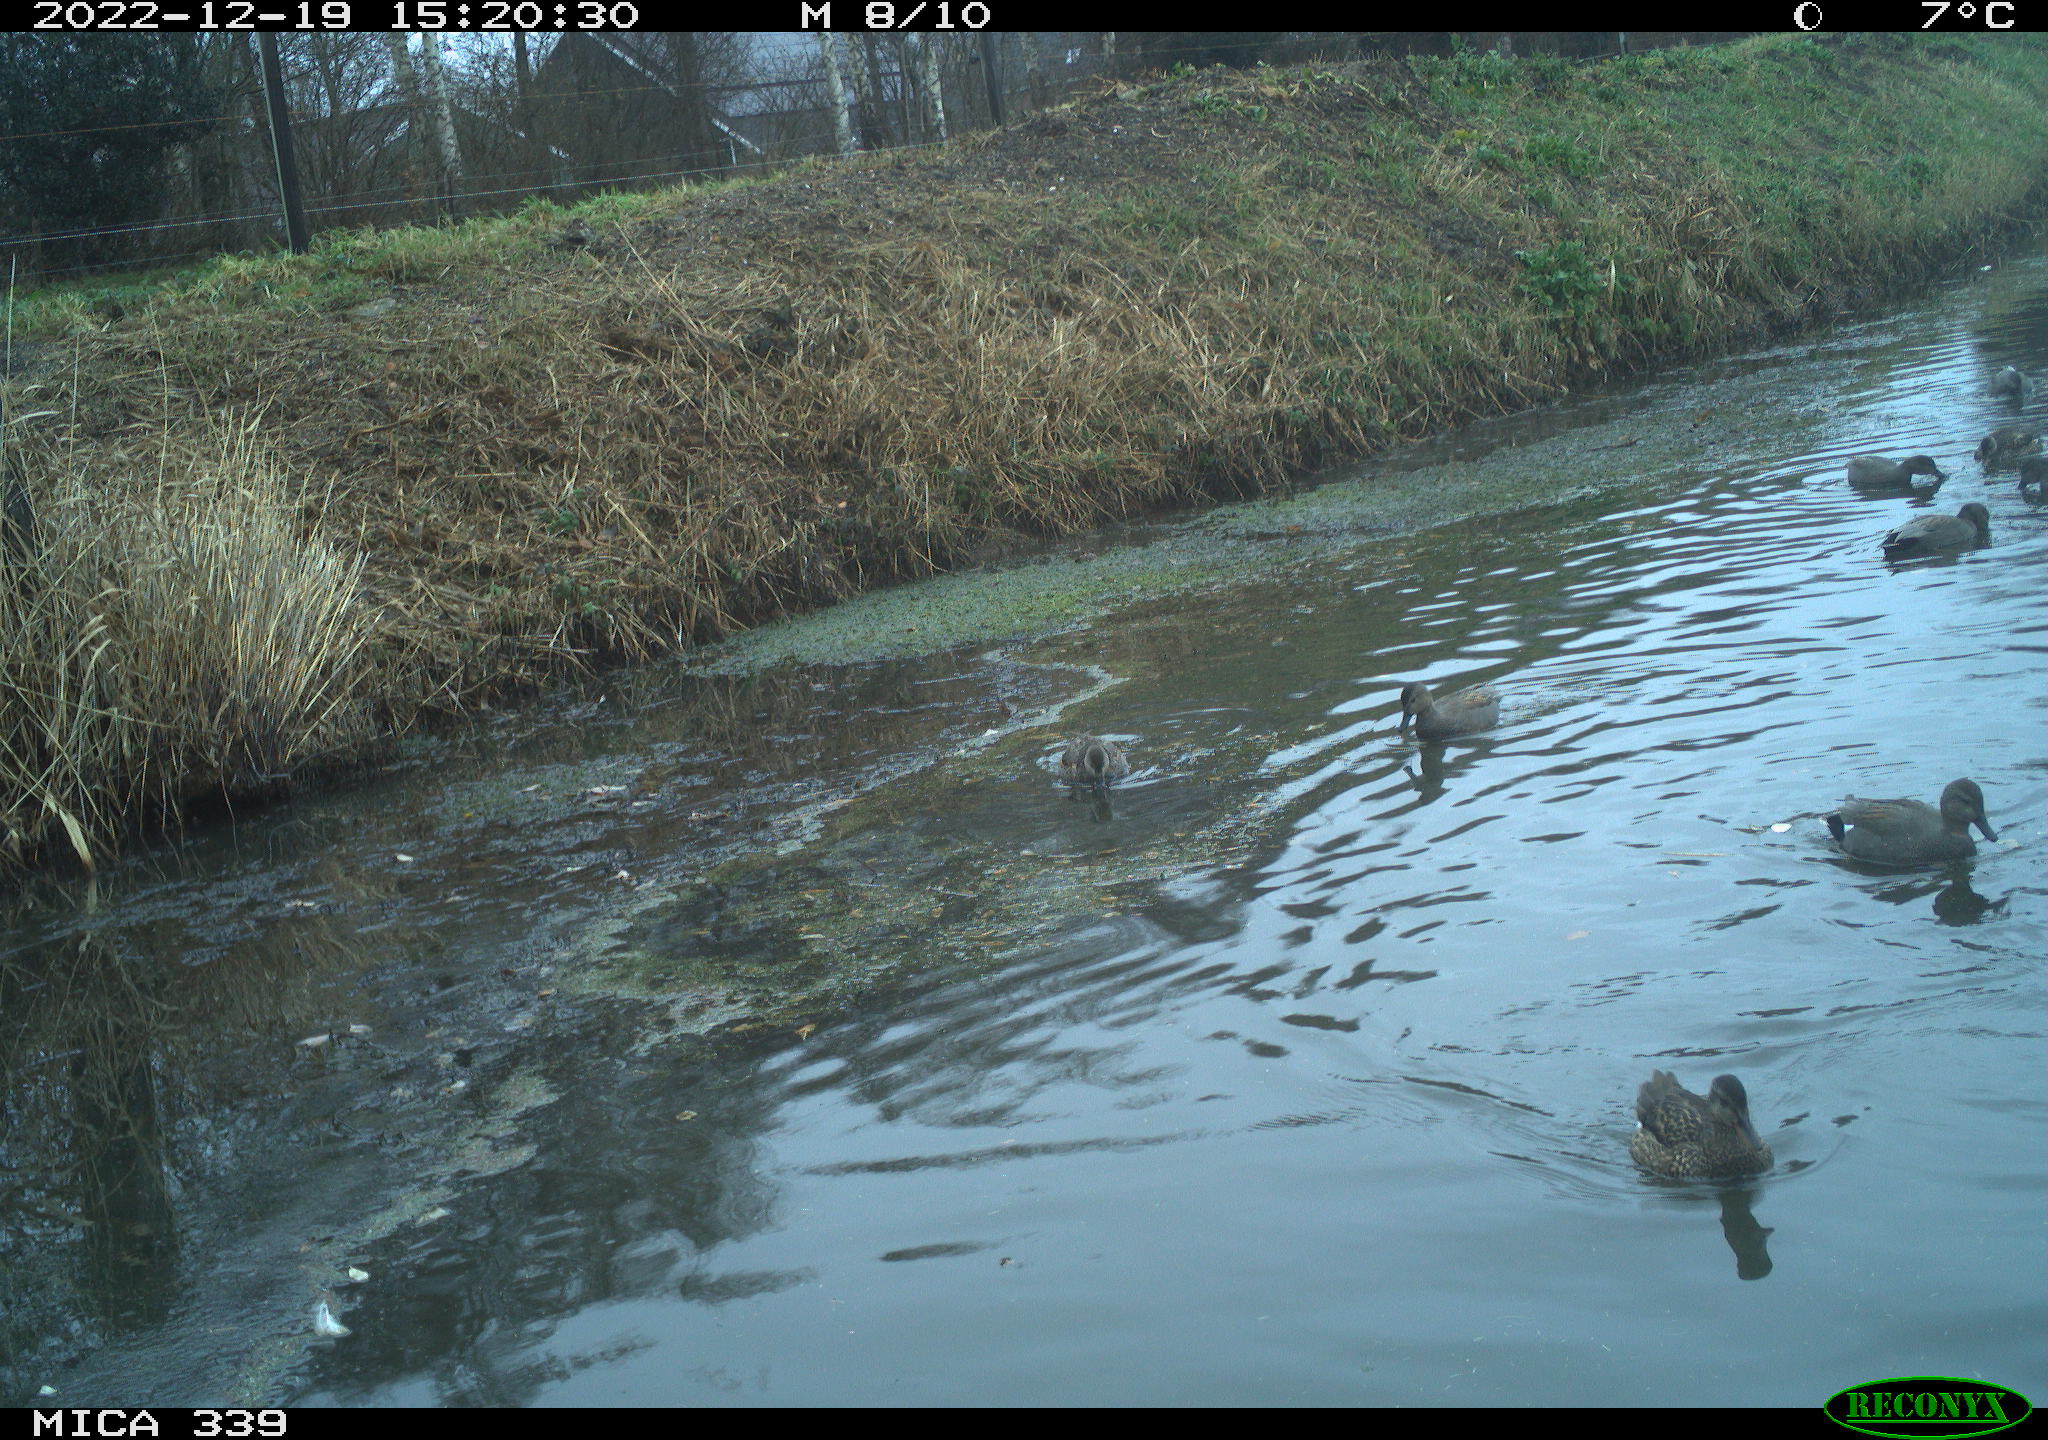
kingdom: Animalia
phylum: Chordata
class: Aves
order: Anseriformes
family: Anatidae
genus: Anas
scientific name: Anas
